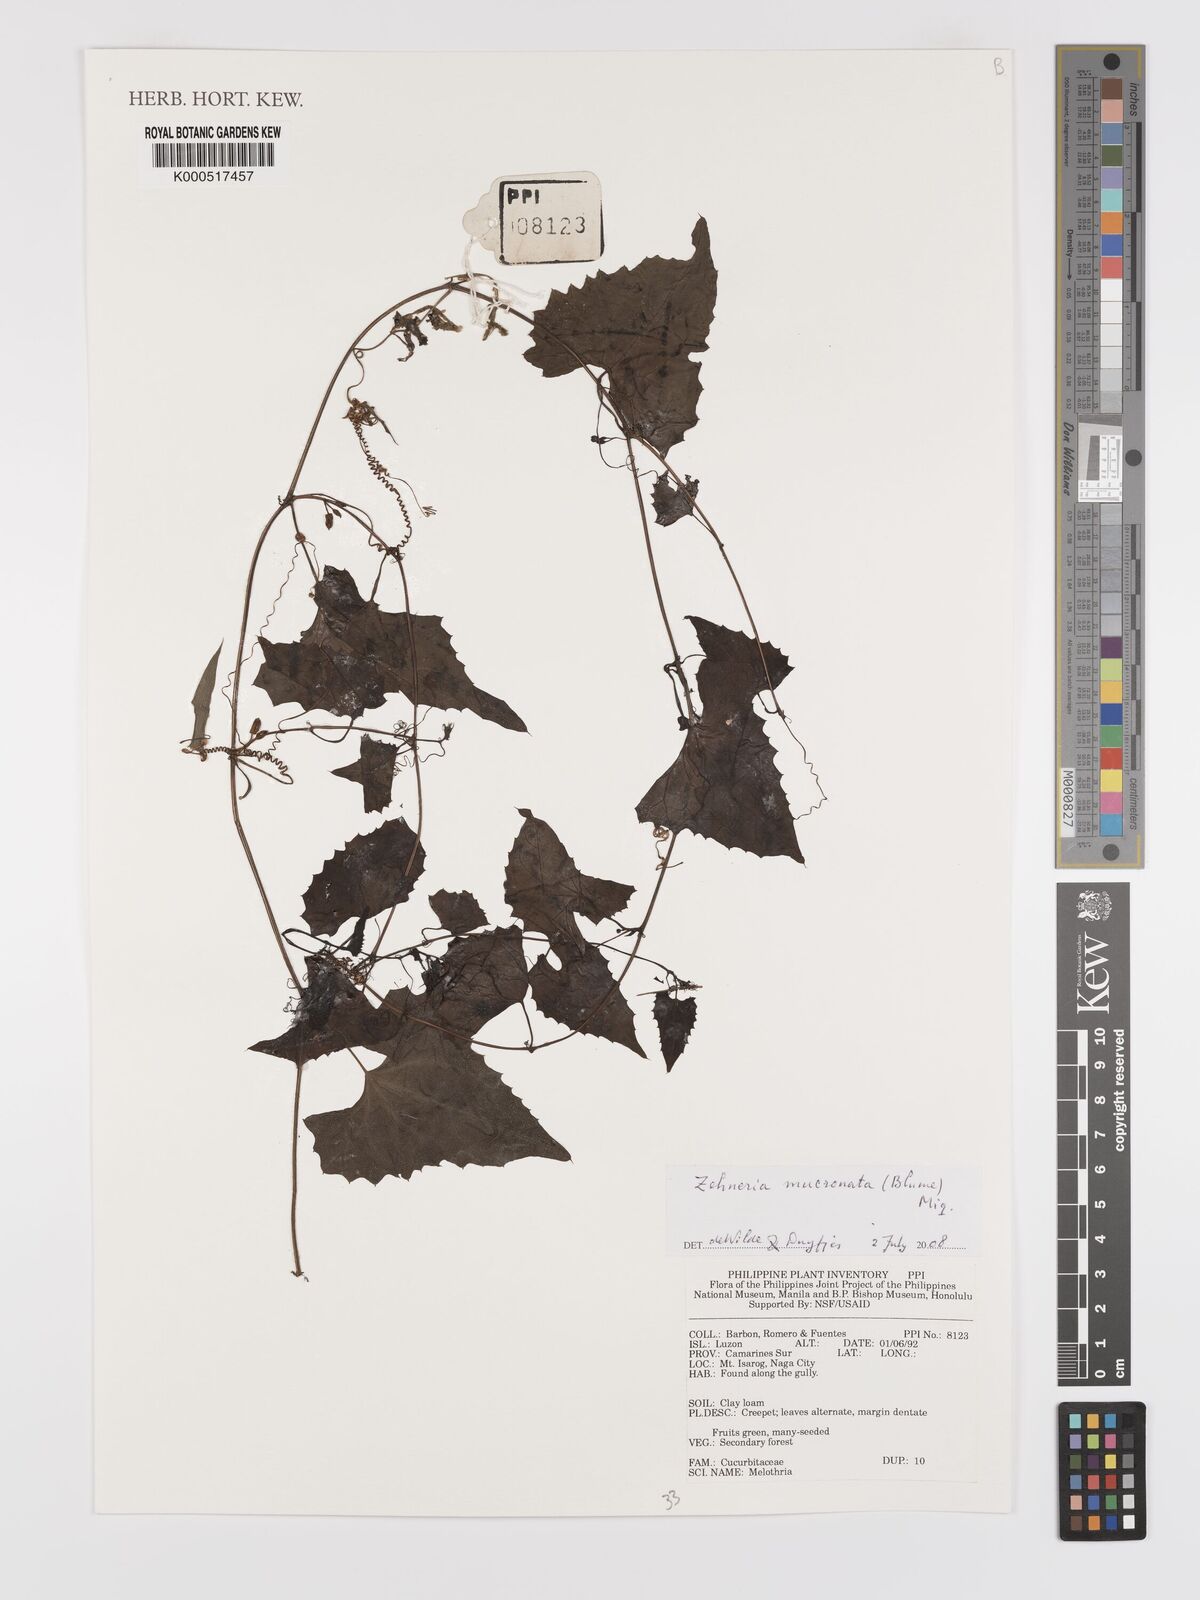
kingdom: Plantae
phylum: Tracheophyta
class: Magnoliopsida
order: Cucurbitales
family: Cucurbitaceae
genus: Zehneria
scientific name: Zehneria mucronata
